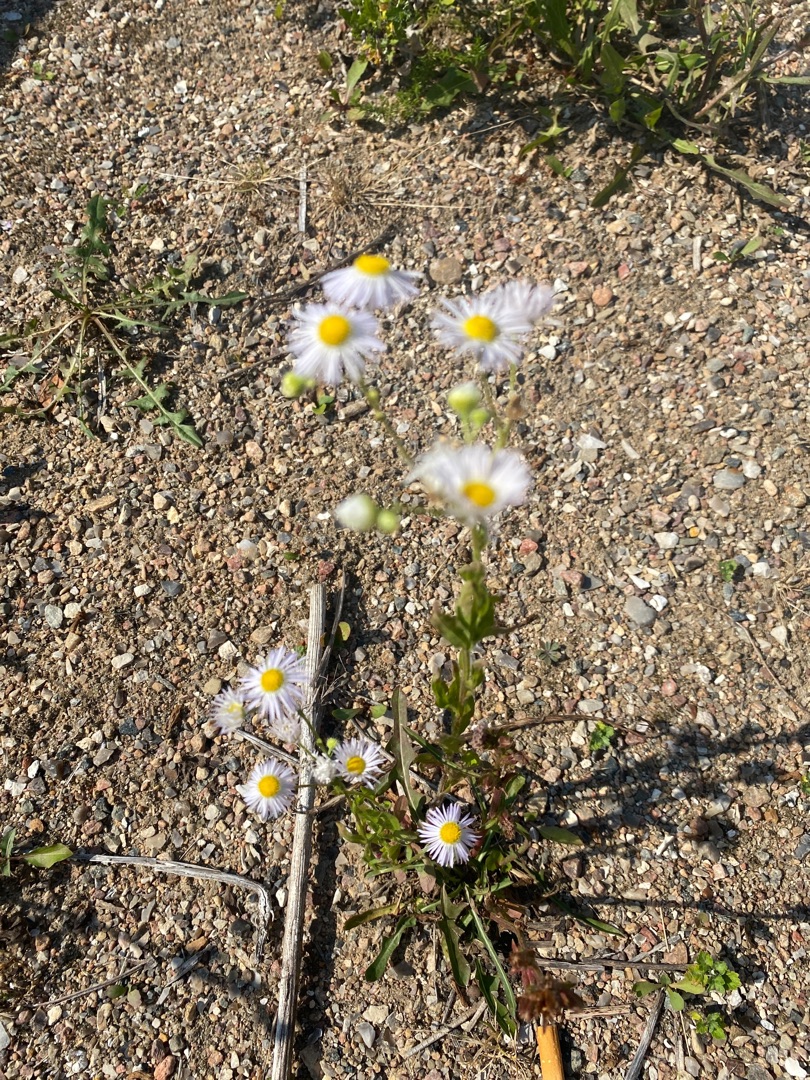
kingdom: Plantae
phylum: Tracheophyta
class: Magnoliopsida
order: Asterales
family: Asteraceae
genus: Erigeron
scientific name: Erigeron annuus
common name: Almindelig smalstråle
